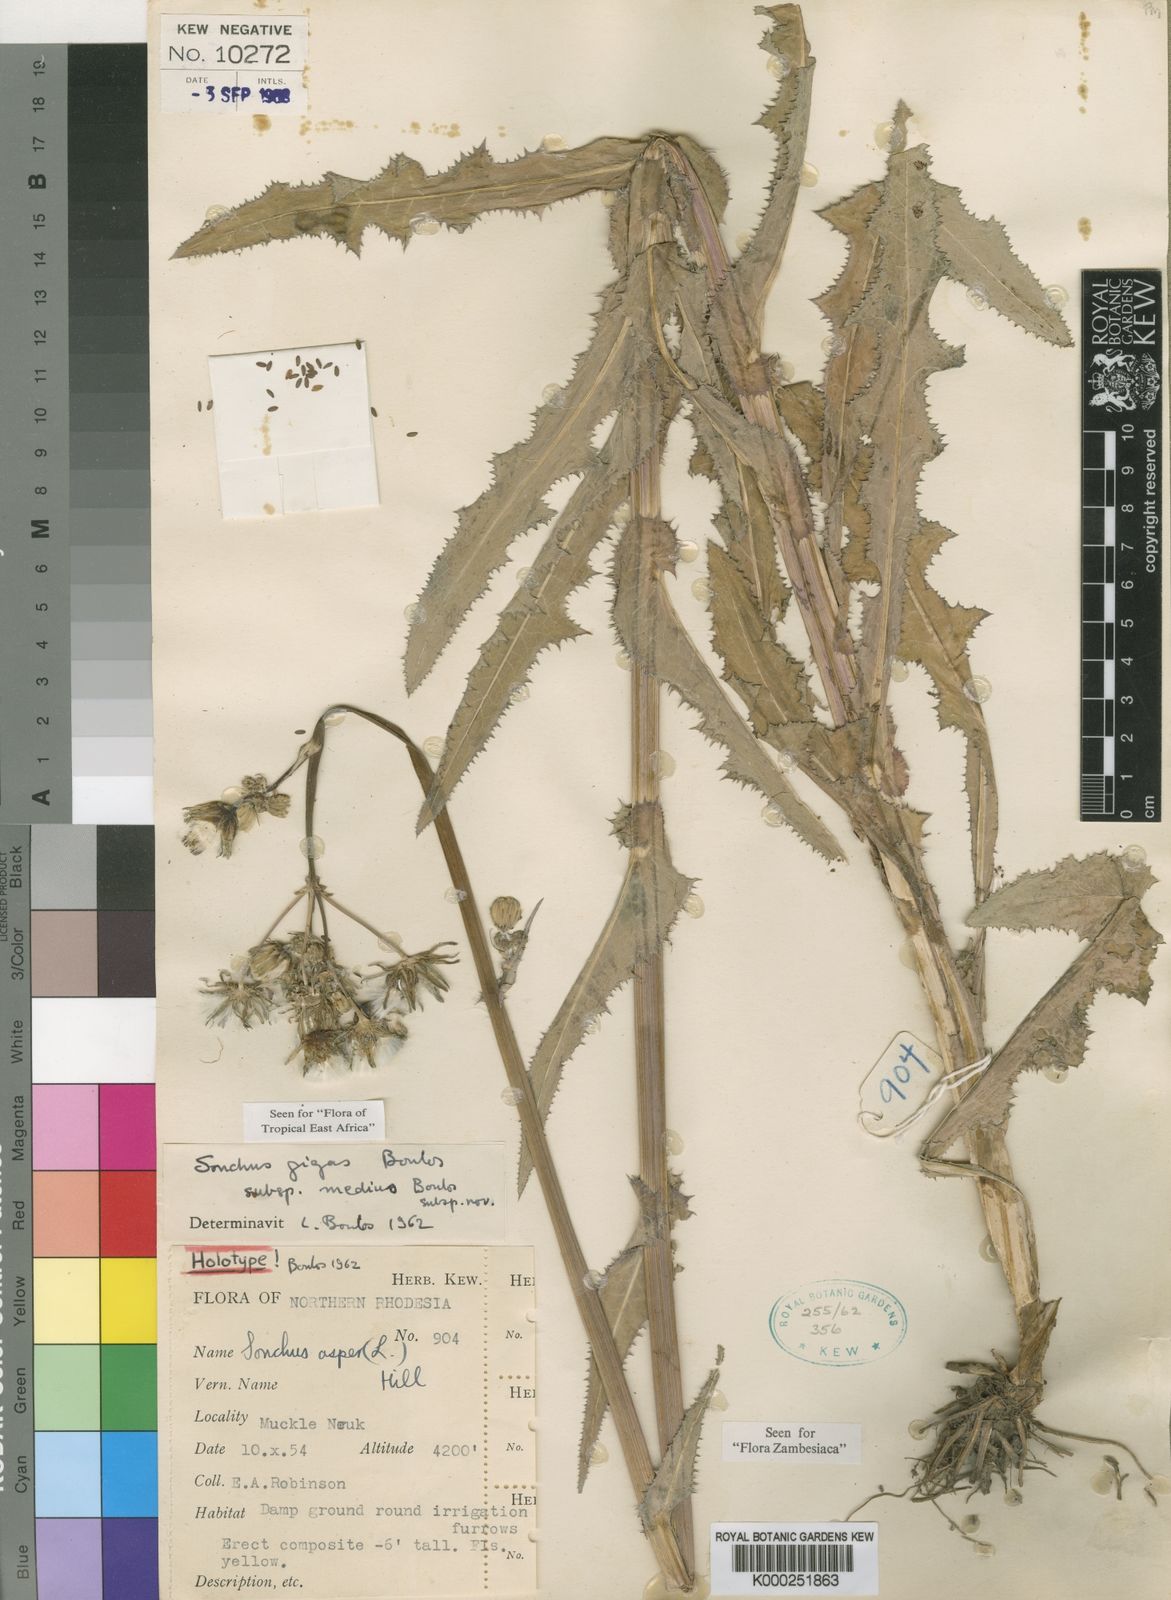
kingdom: Plantae
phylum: Tracheophyta
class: Magnoliopsida
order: Asterales
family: Asteraceae
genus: Sonchus
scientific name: Sonchus asper
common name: Prickly sow-thistle
